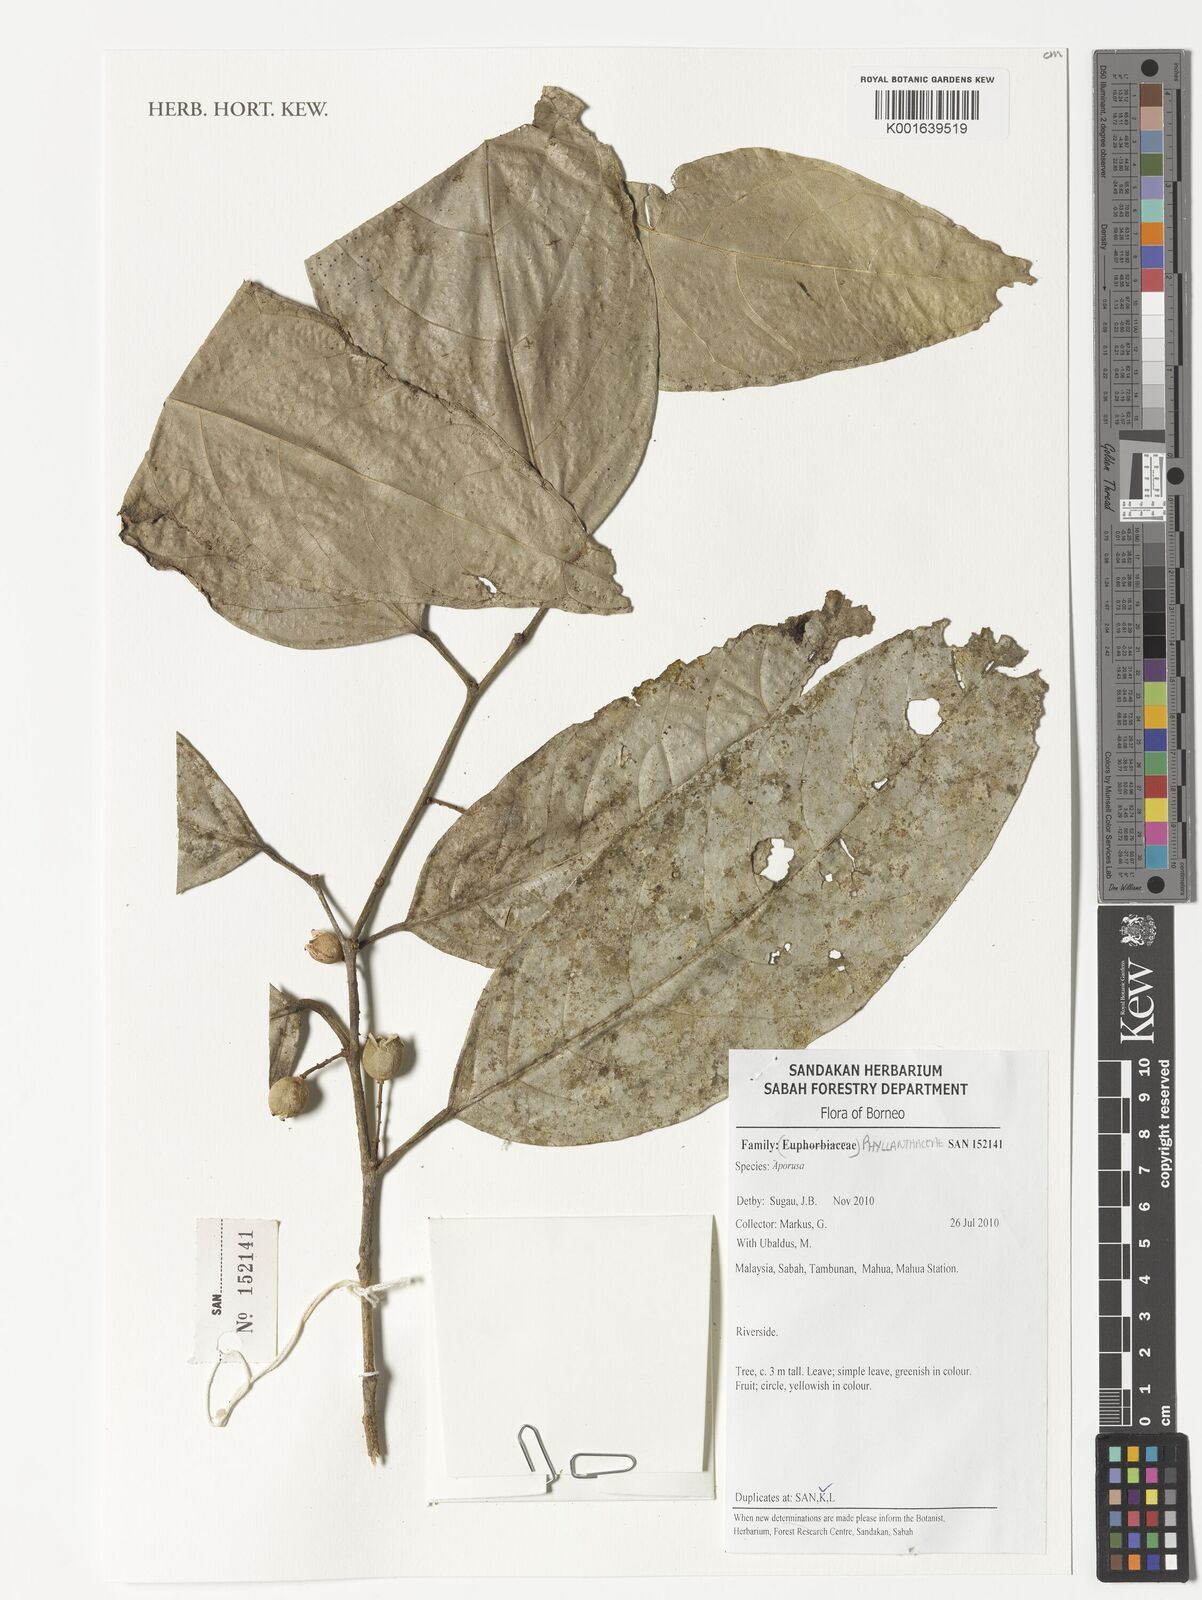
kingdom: Plantae
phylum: Tracheophyta
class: Magnoliopsida
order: Malpighiales
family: Phyllanthaceae
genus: Aporosa
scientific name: Aporosa
